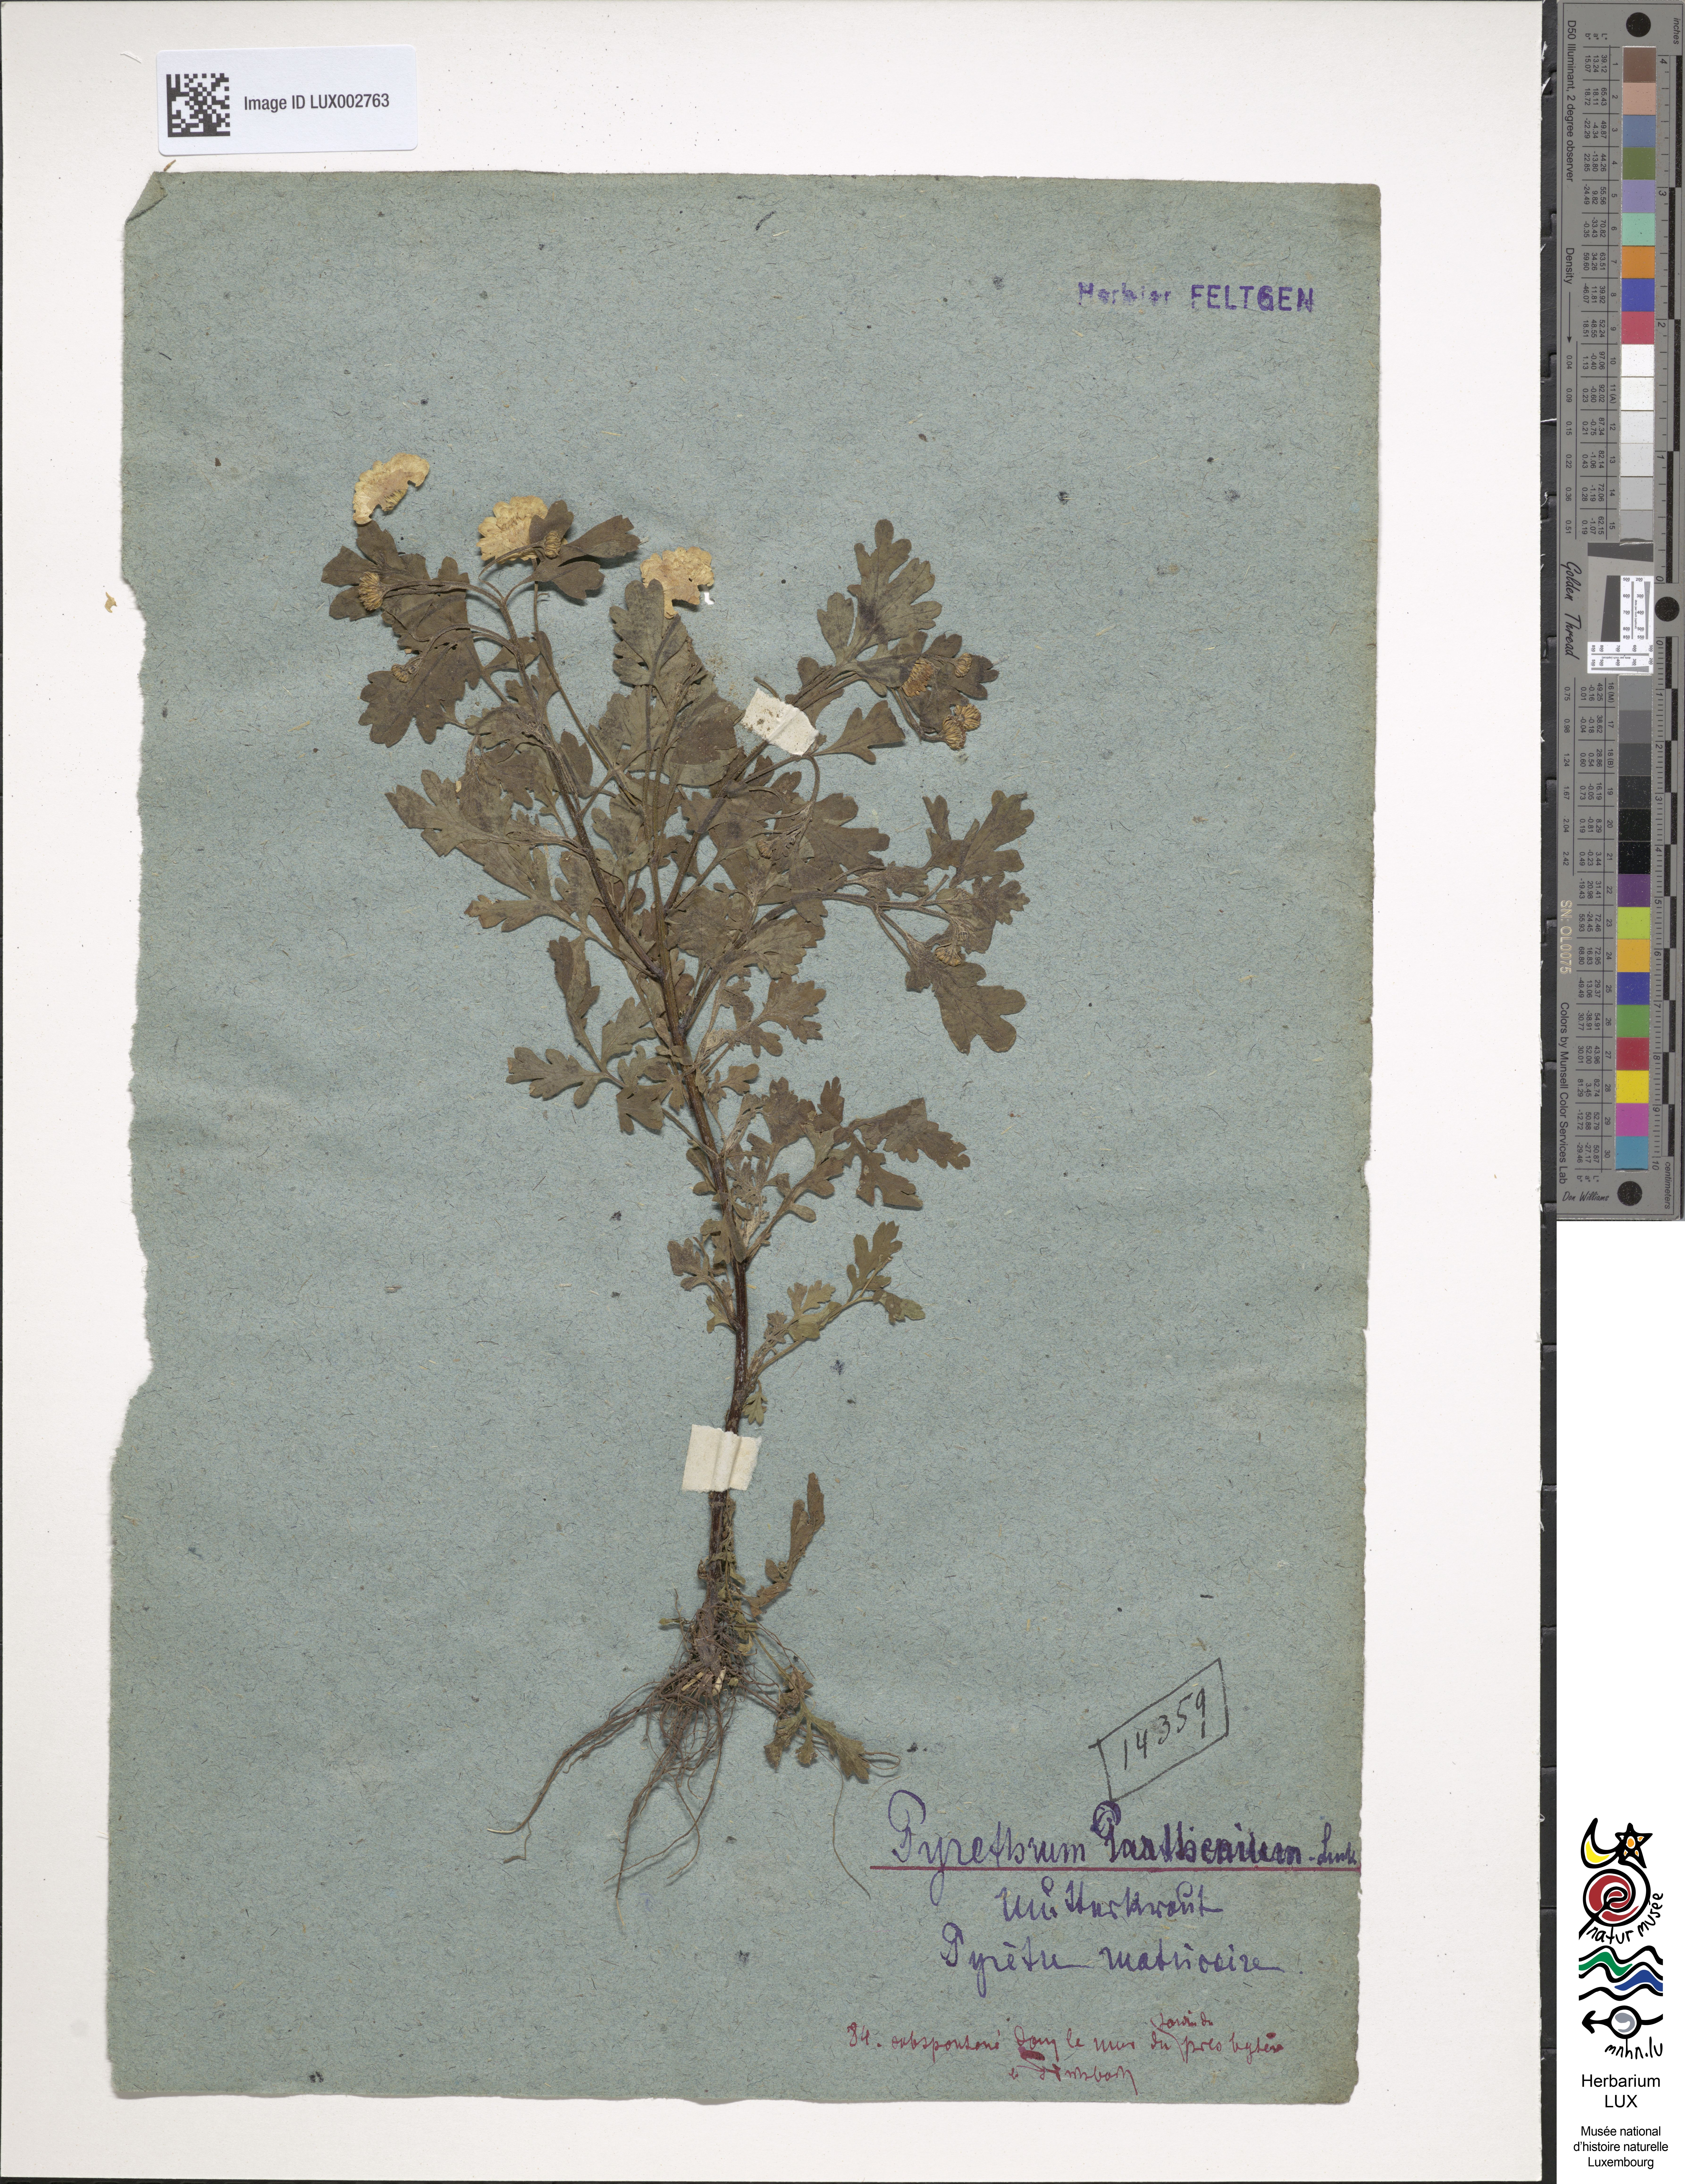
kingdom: Plantae
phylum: Tracheophyta
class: Magnoliopsida
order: Asterales
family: Asteraceae
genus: Tanacetum
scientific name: Tanacetum parthenium
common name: Feverfew
